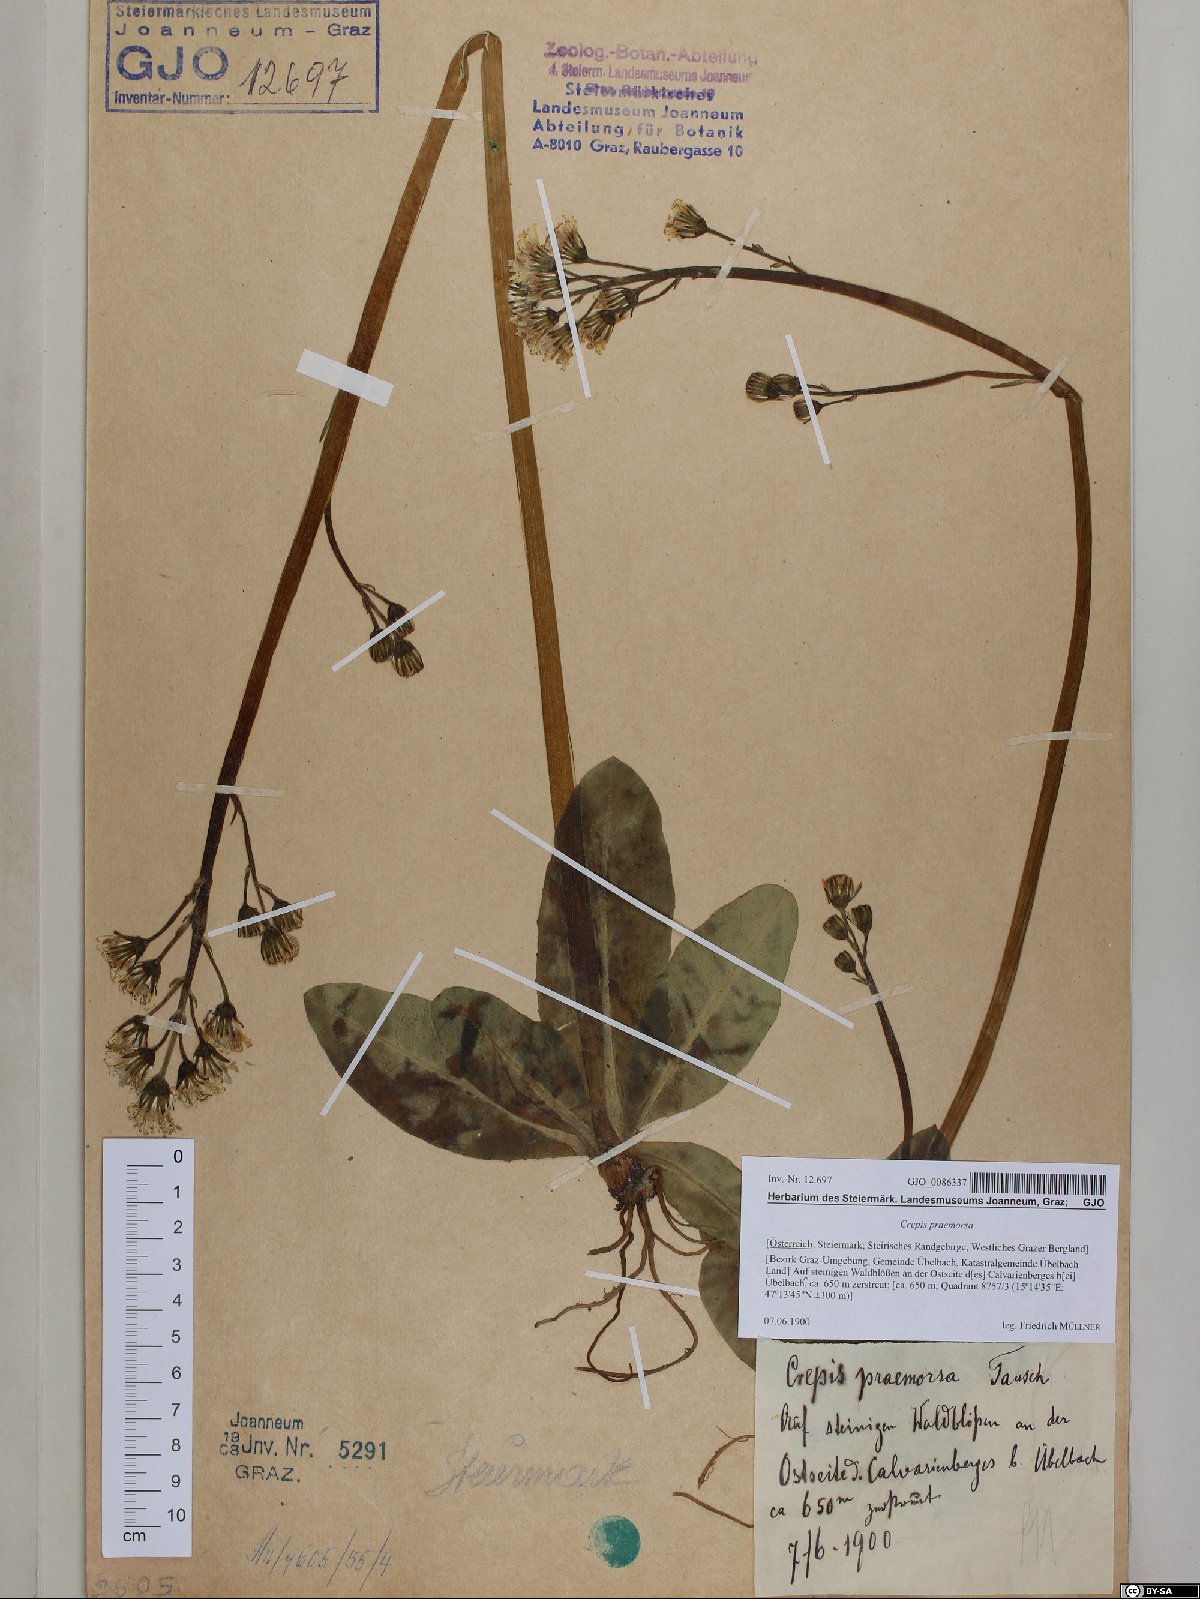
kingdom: Plantae
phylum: Tracheophyta
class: Magnoliopsida
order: Asterales
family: Asteraceae
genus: Crepis
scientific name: Crepis praemorsa
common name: Leafless hawk's-beard
